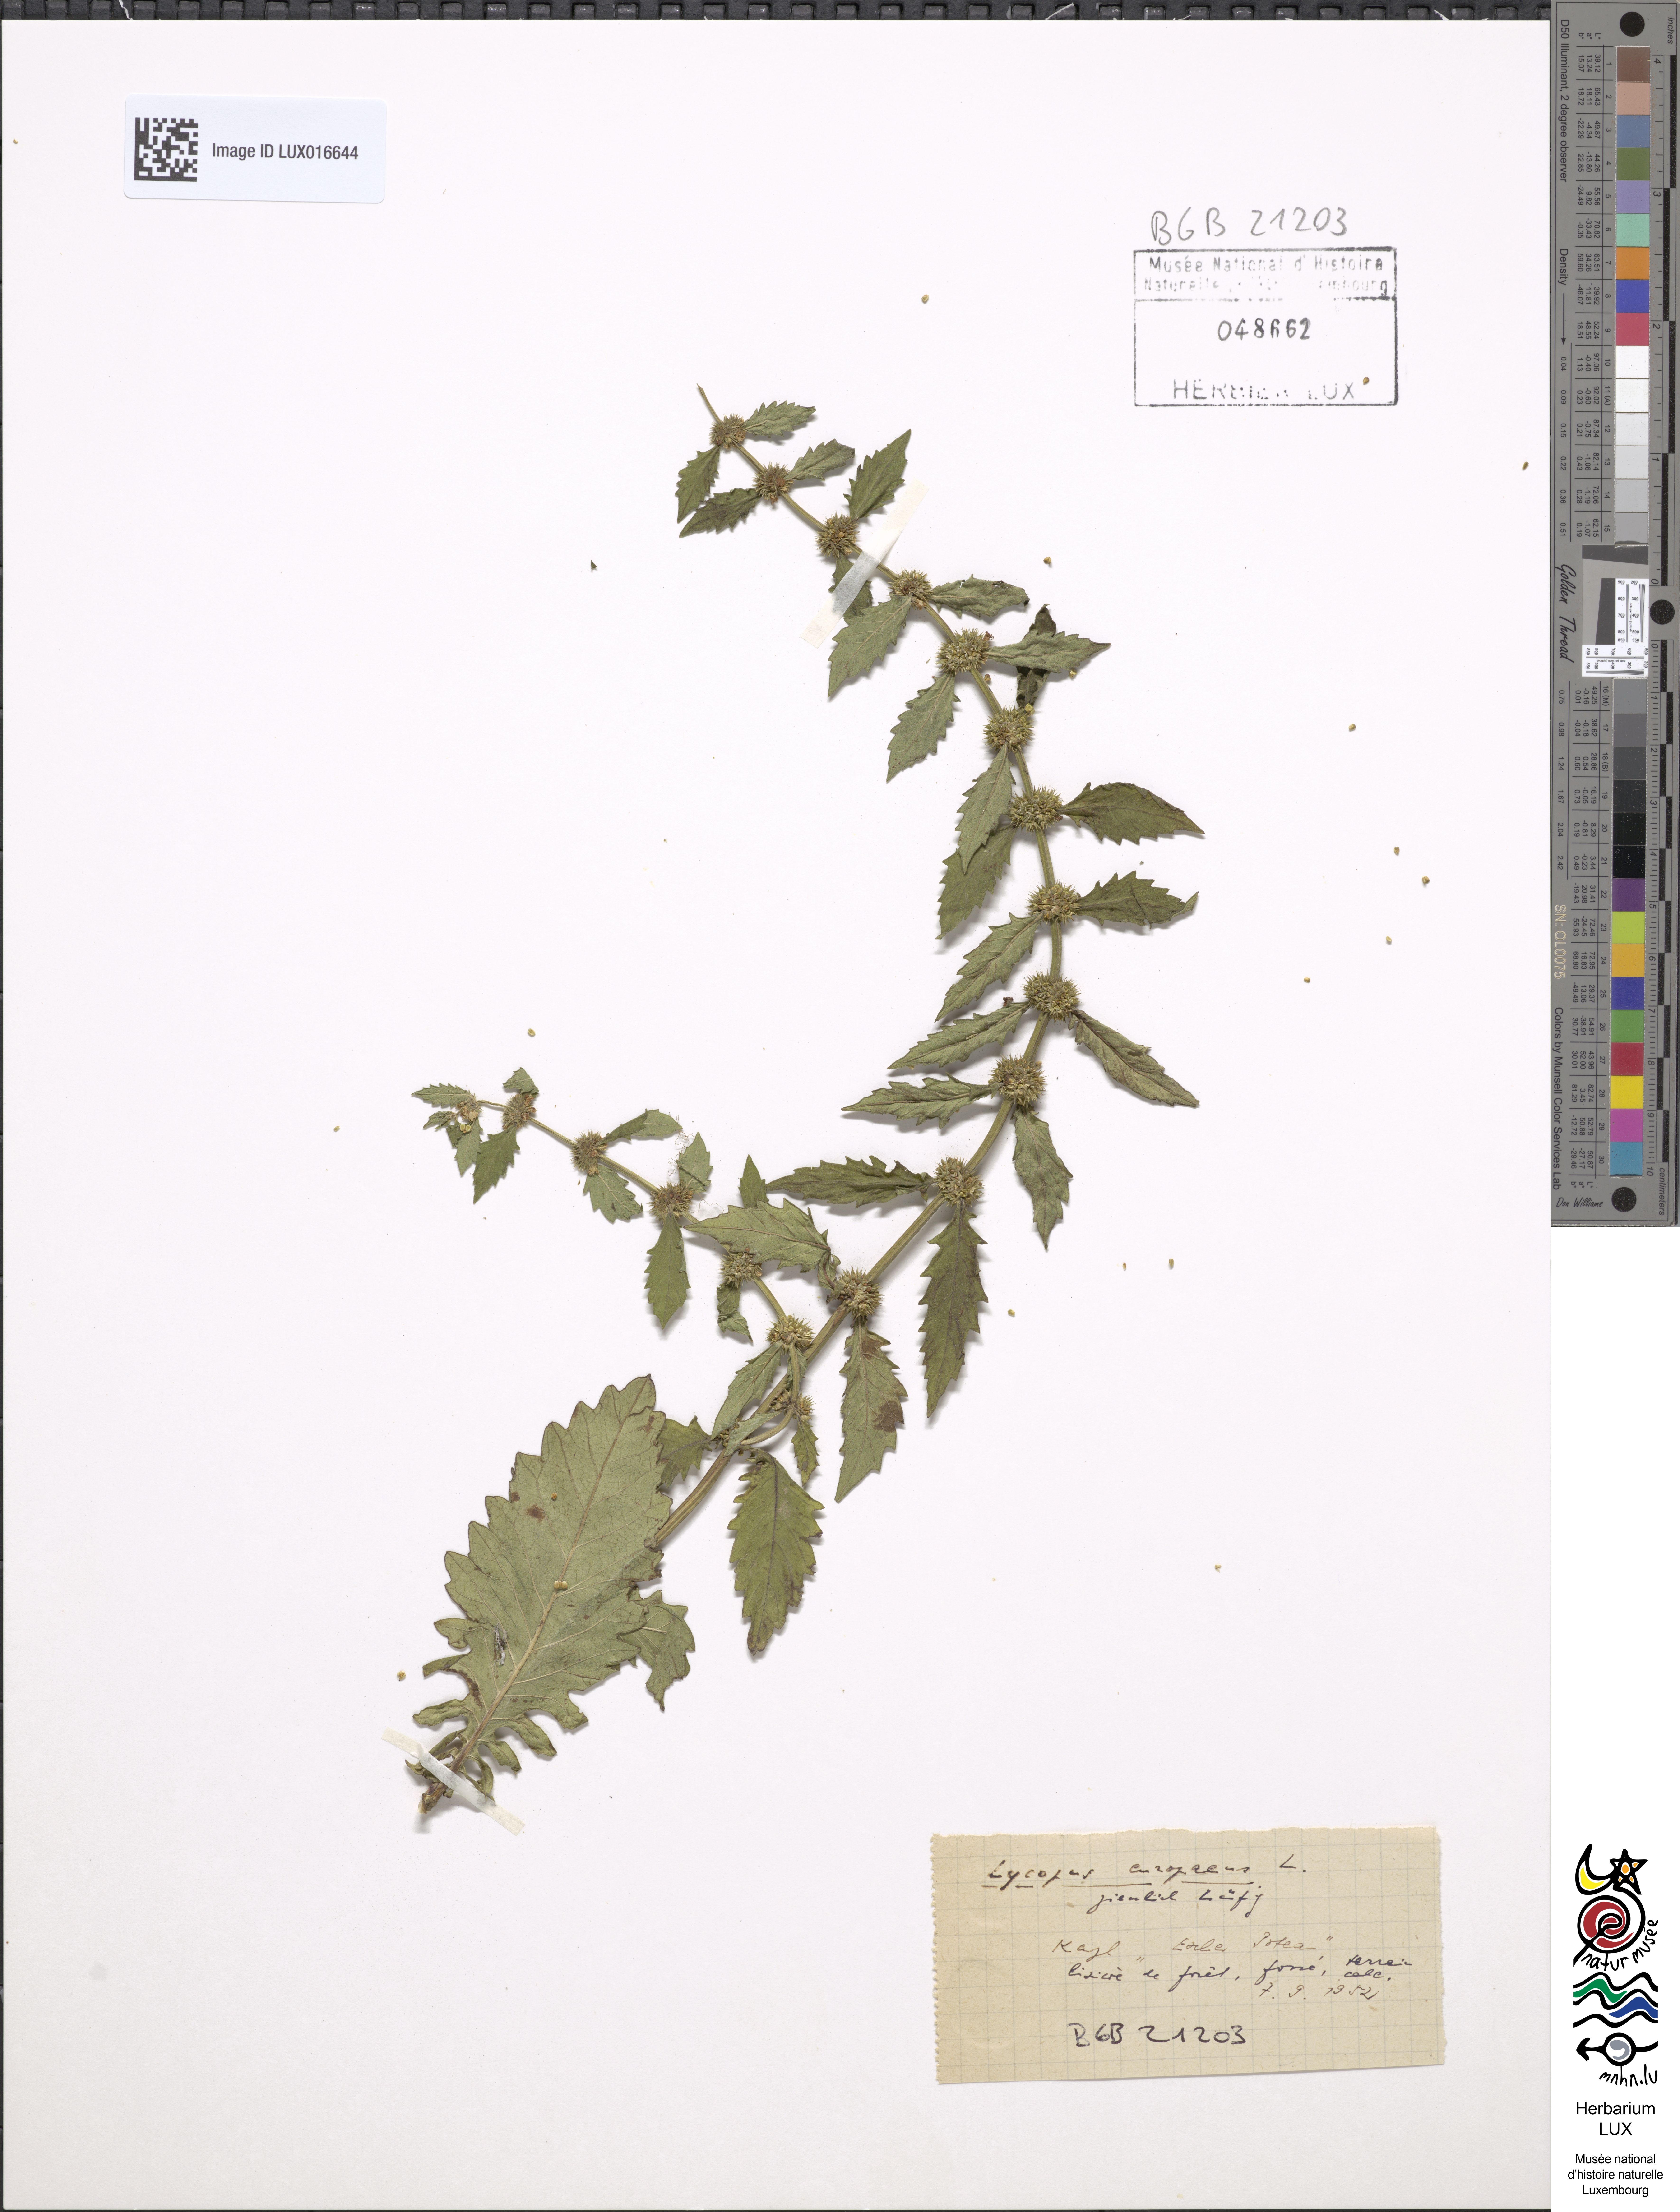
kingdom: Plantae
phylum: Tracheophyta
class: Magnoliopsida
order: Lamiales
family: Lamiaceae
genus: Lycopus
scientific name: Lycopus europaeus
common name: European bugleweed
